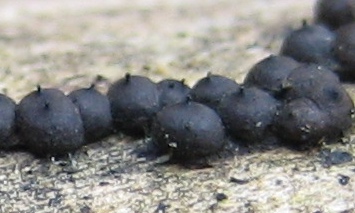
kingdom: Fungi
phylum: Ascomycota
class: Sordariomycetes
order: Xylariales
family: Xylariaceae
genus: Rosellinia
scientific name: Rosellinia
